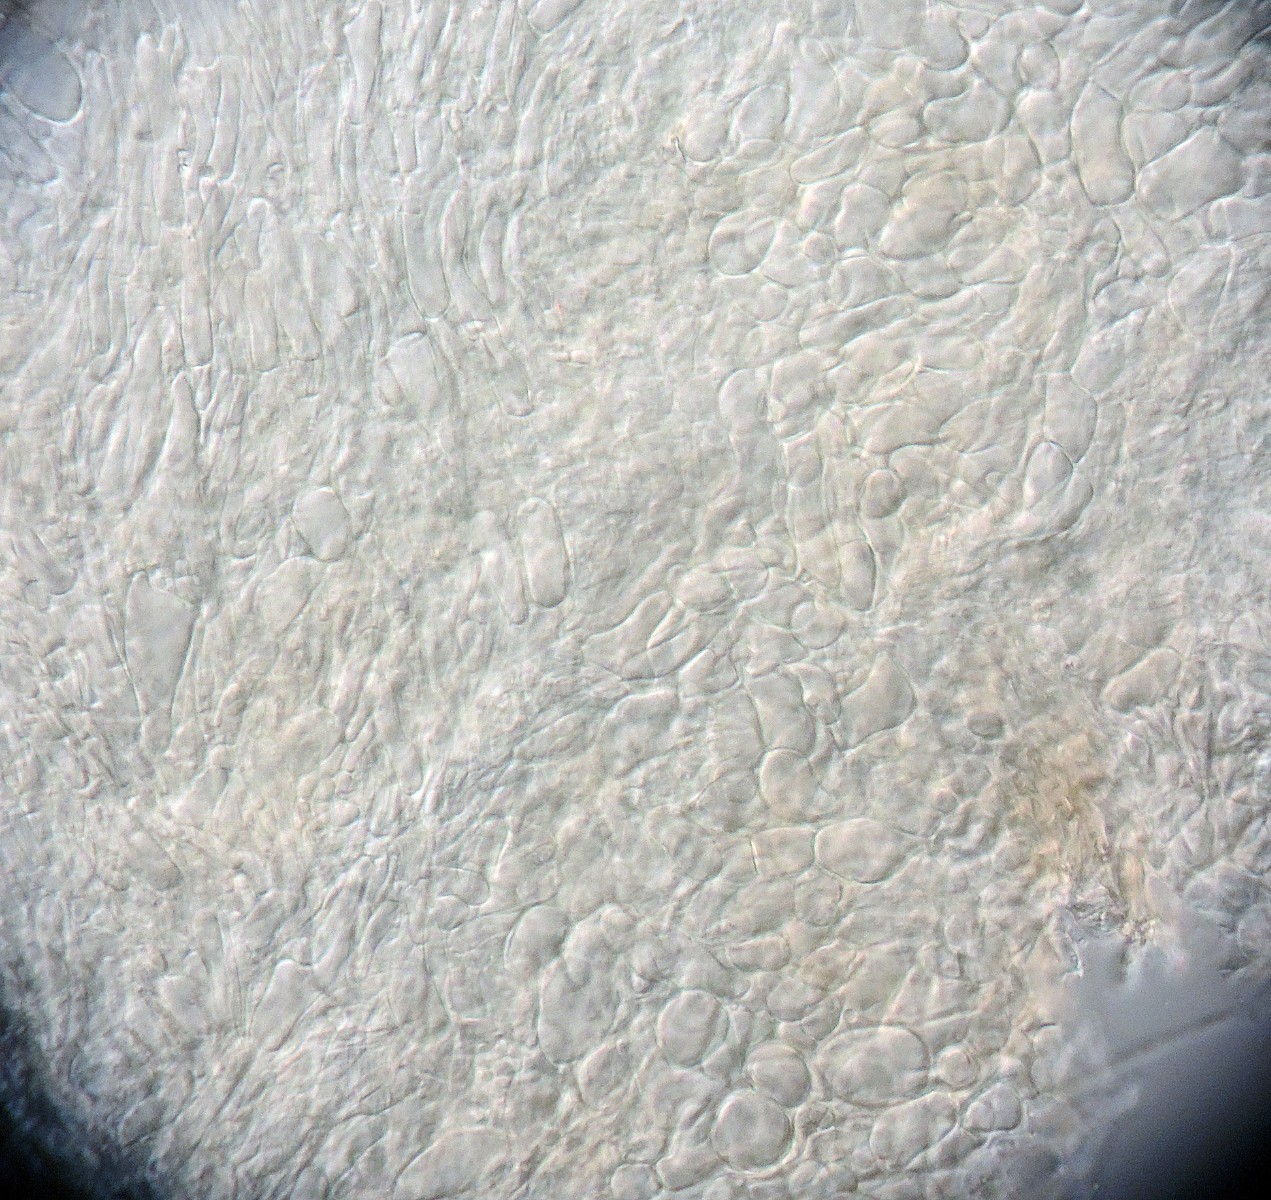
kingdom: Fungi
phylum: Ascomycota
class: Leotiomycetes
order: Helotiales
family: Helotiaceae
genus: Hymenoscyphus
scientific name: Hymenoscyphus lutescens
